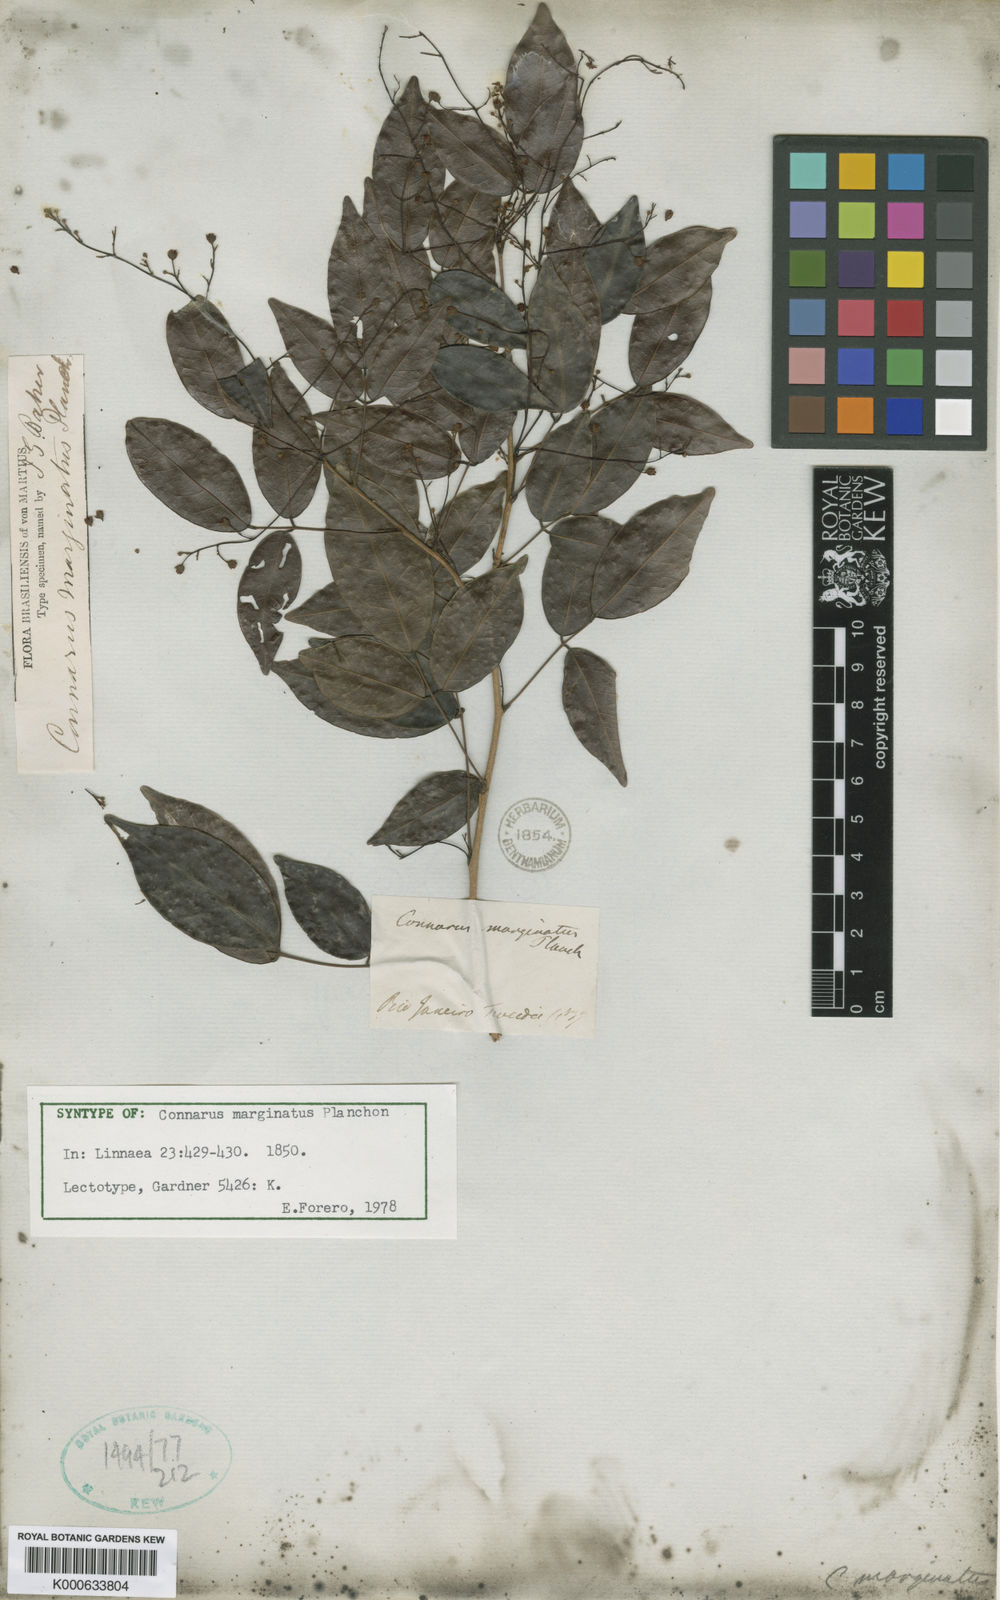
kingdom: Plantae
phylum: Tracheophyta
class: Magnoliopsida
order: Oxalidales
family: Connaraceae
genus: Connarus
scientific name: Connarus marginatus
